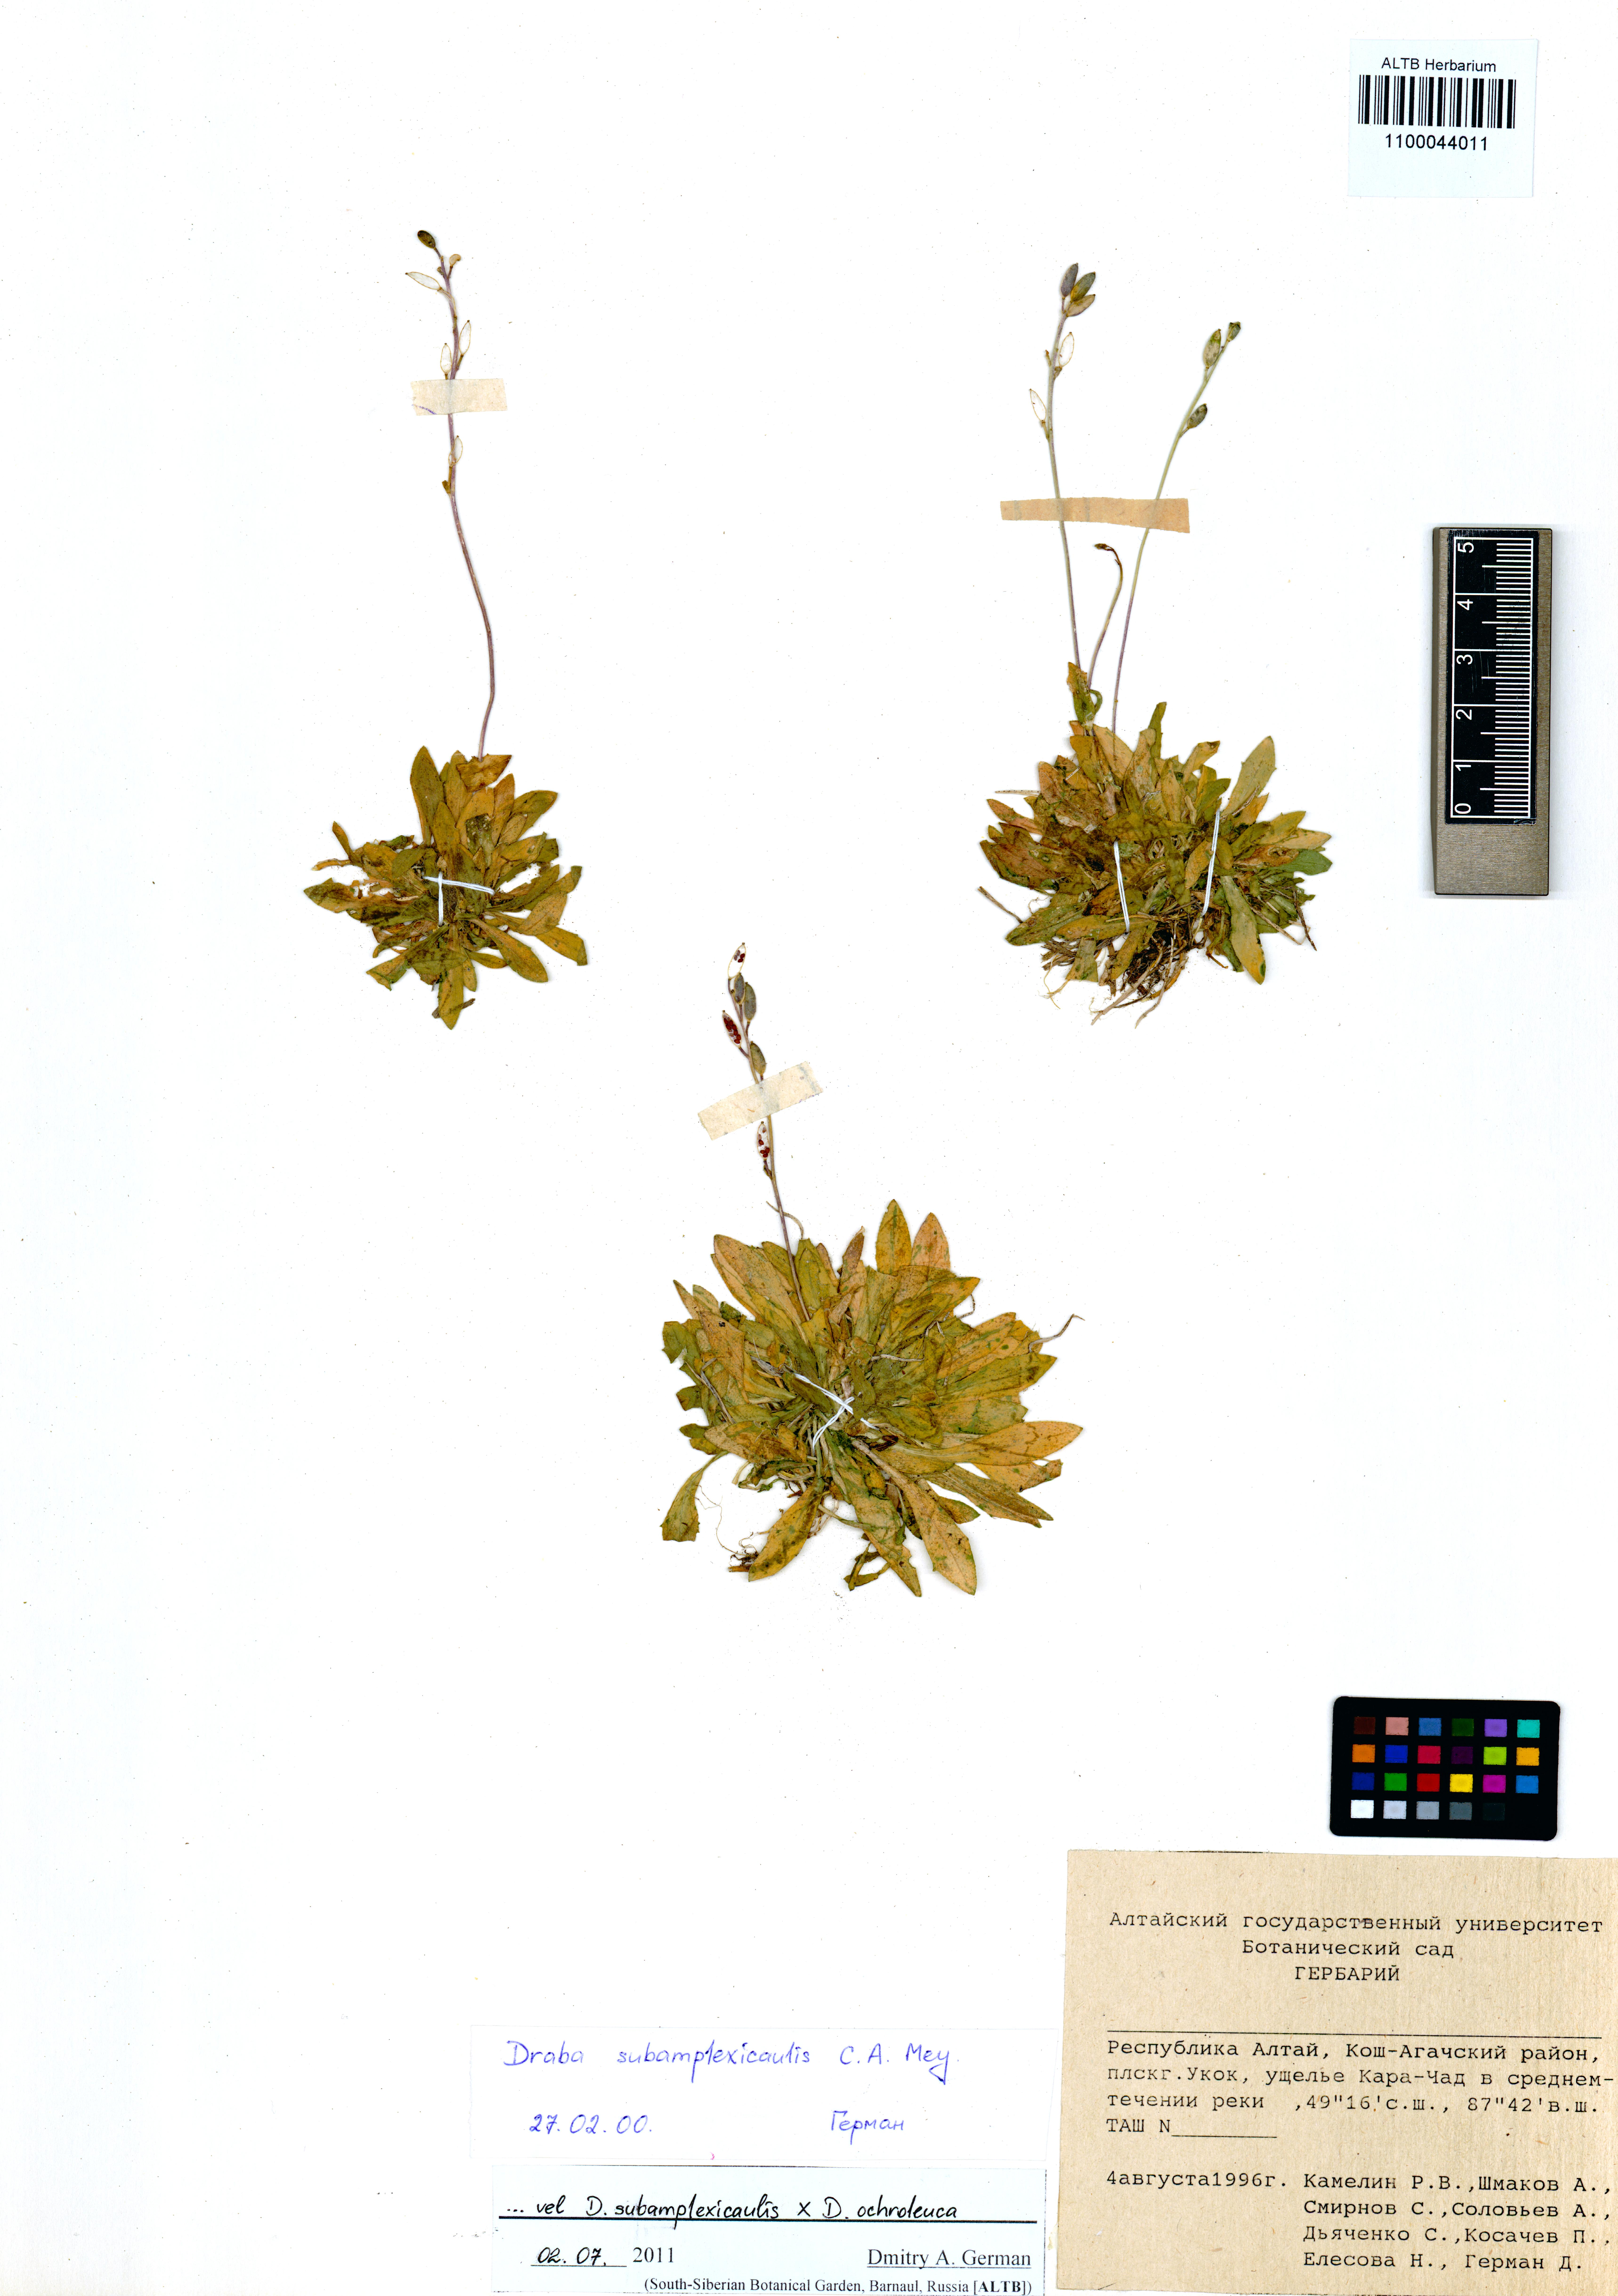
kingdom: Plantae
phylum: Tracheophyta
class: Magnoliopsida
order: Brassicales
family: Brassicaceae
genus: Draba
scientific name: Draba subamplexicaulis
